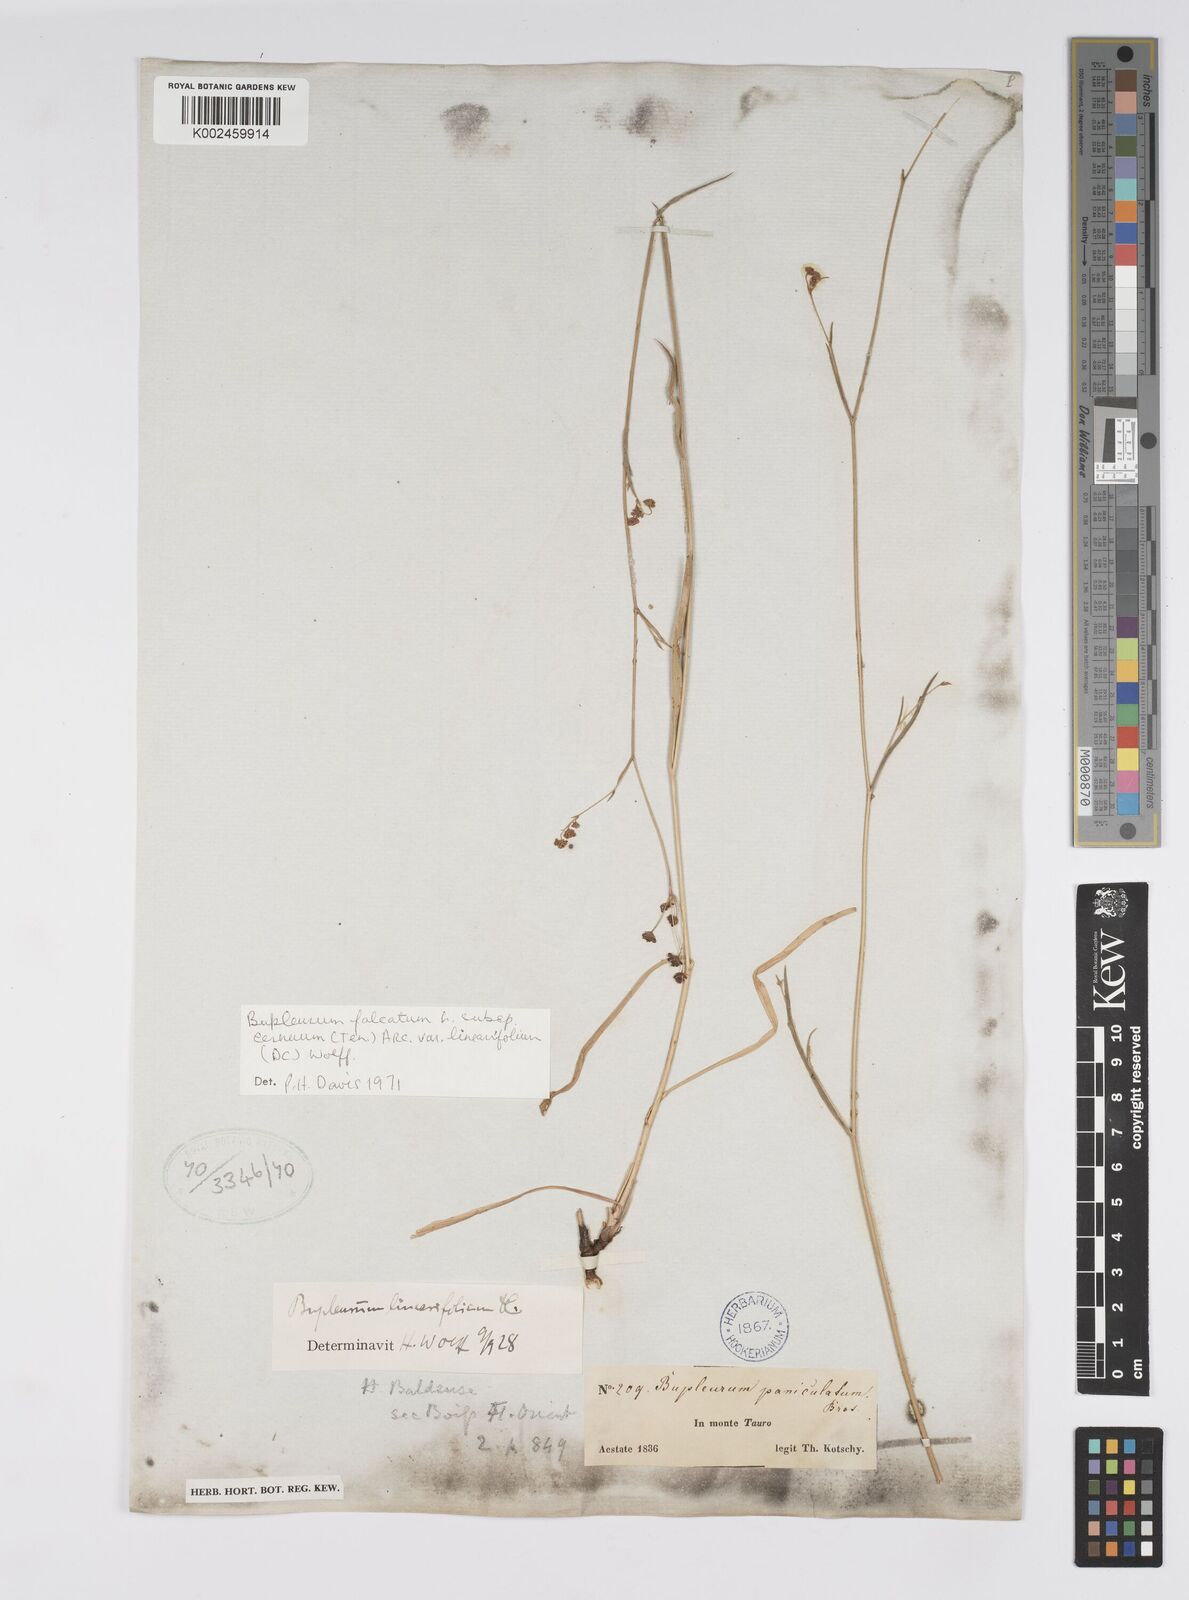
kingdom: Plantae
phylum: Tracheophyta
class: Magnoliopsida
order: Apiales
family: Apiaceae
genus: Bupleurum
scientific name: Bupleurum falcatum
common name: Sickle-leaved hare's-ear
